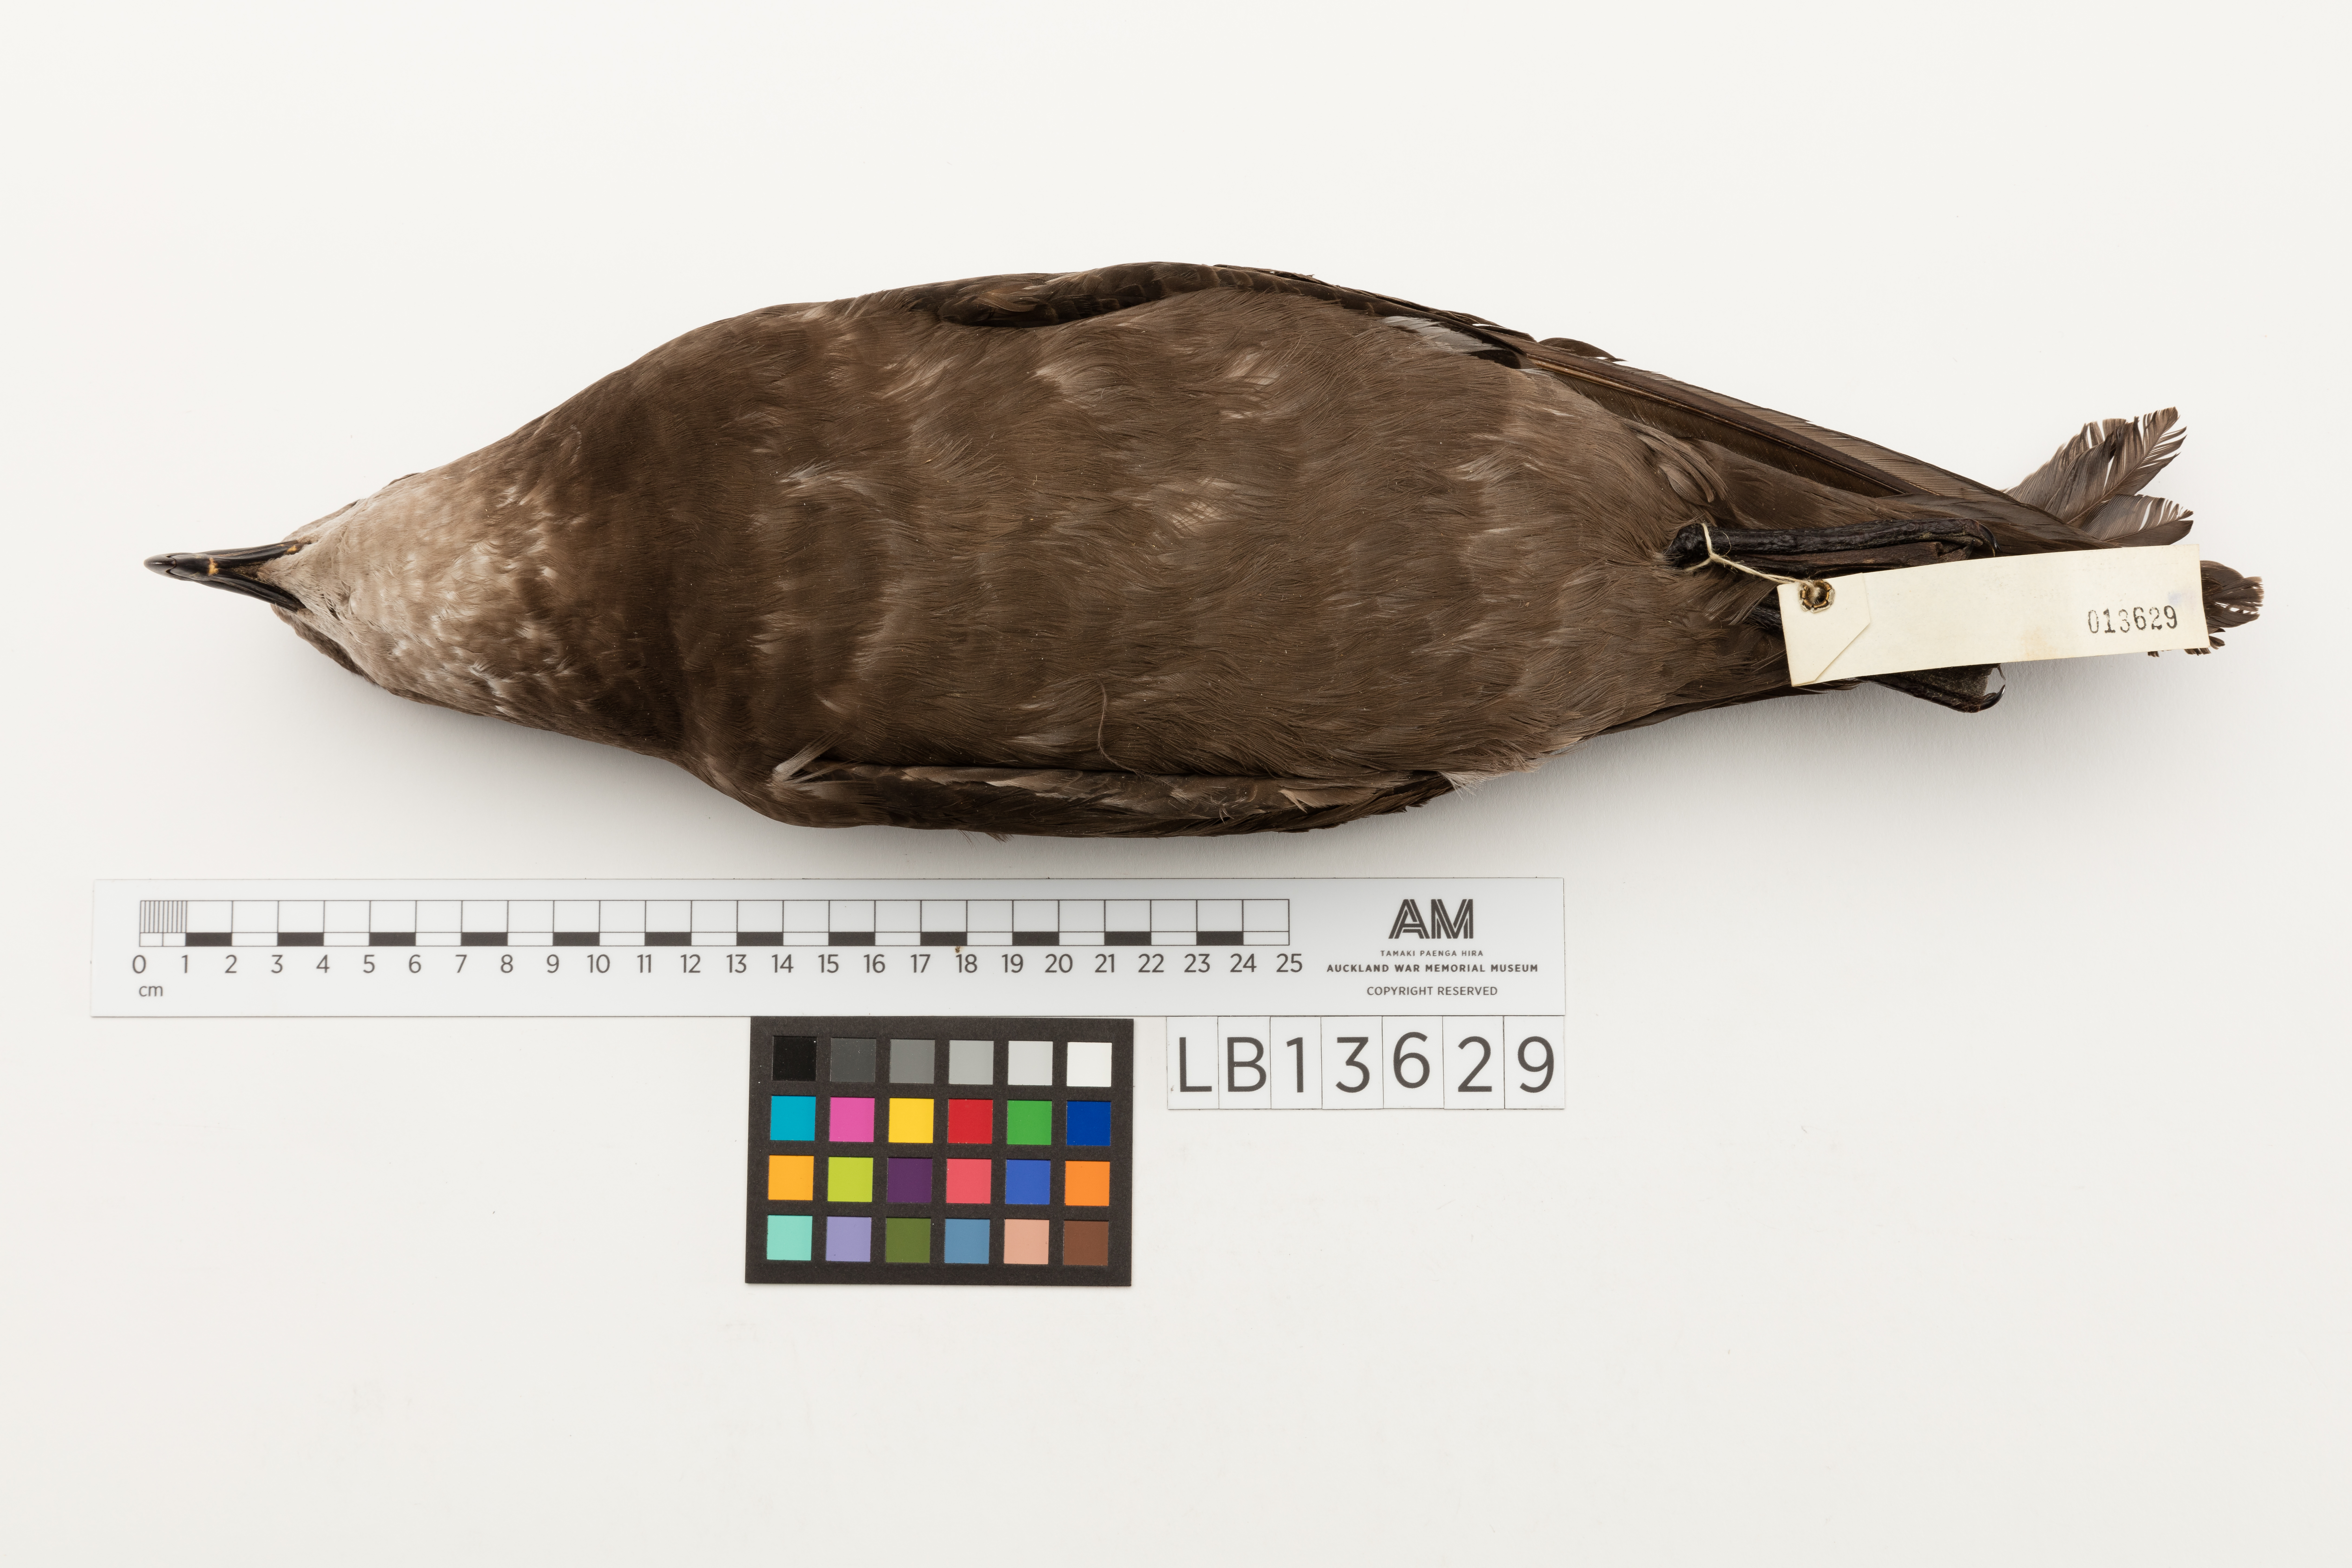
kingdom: Animalia
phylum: Chordata
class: Aves
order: Procellariiformes
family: Procellariidae
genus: Pterodroma
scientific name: Pterodroma macroptera
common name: Great-winged petrel
